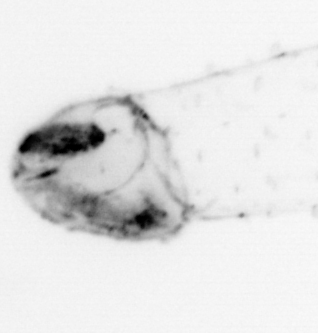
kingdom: Animalia
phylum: Chaetognatha
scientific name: Chaetognatha
